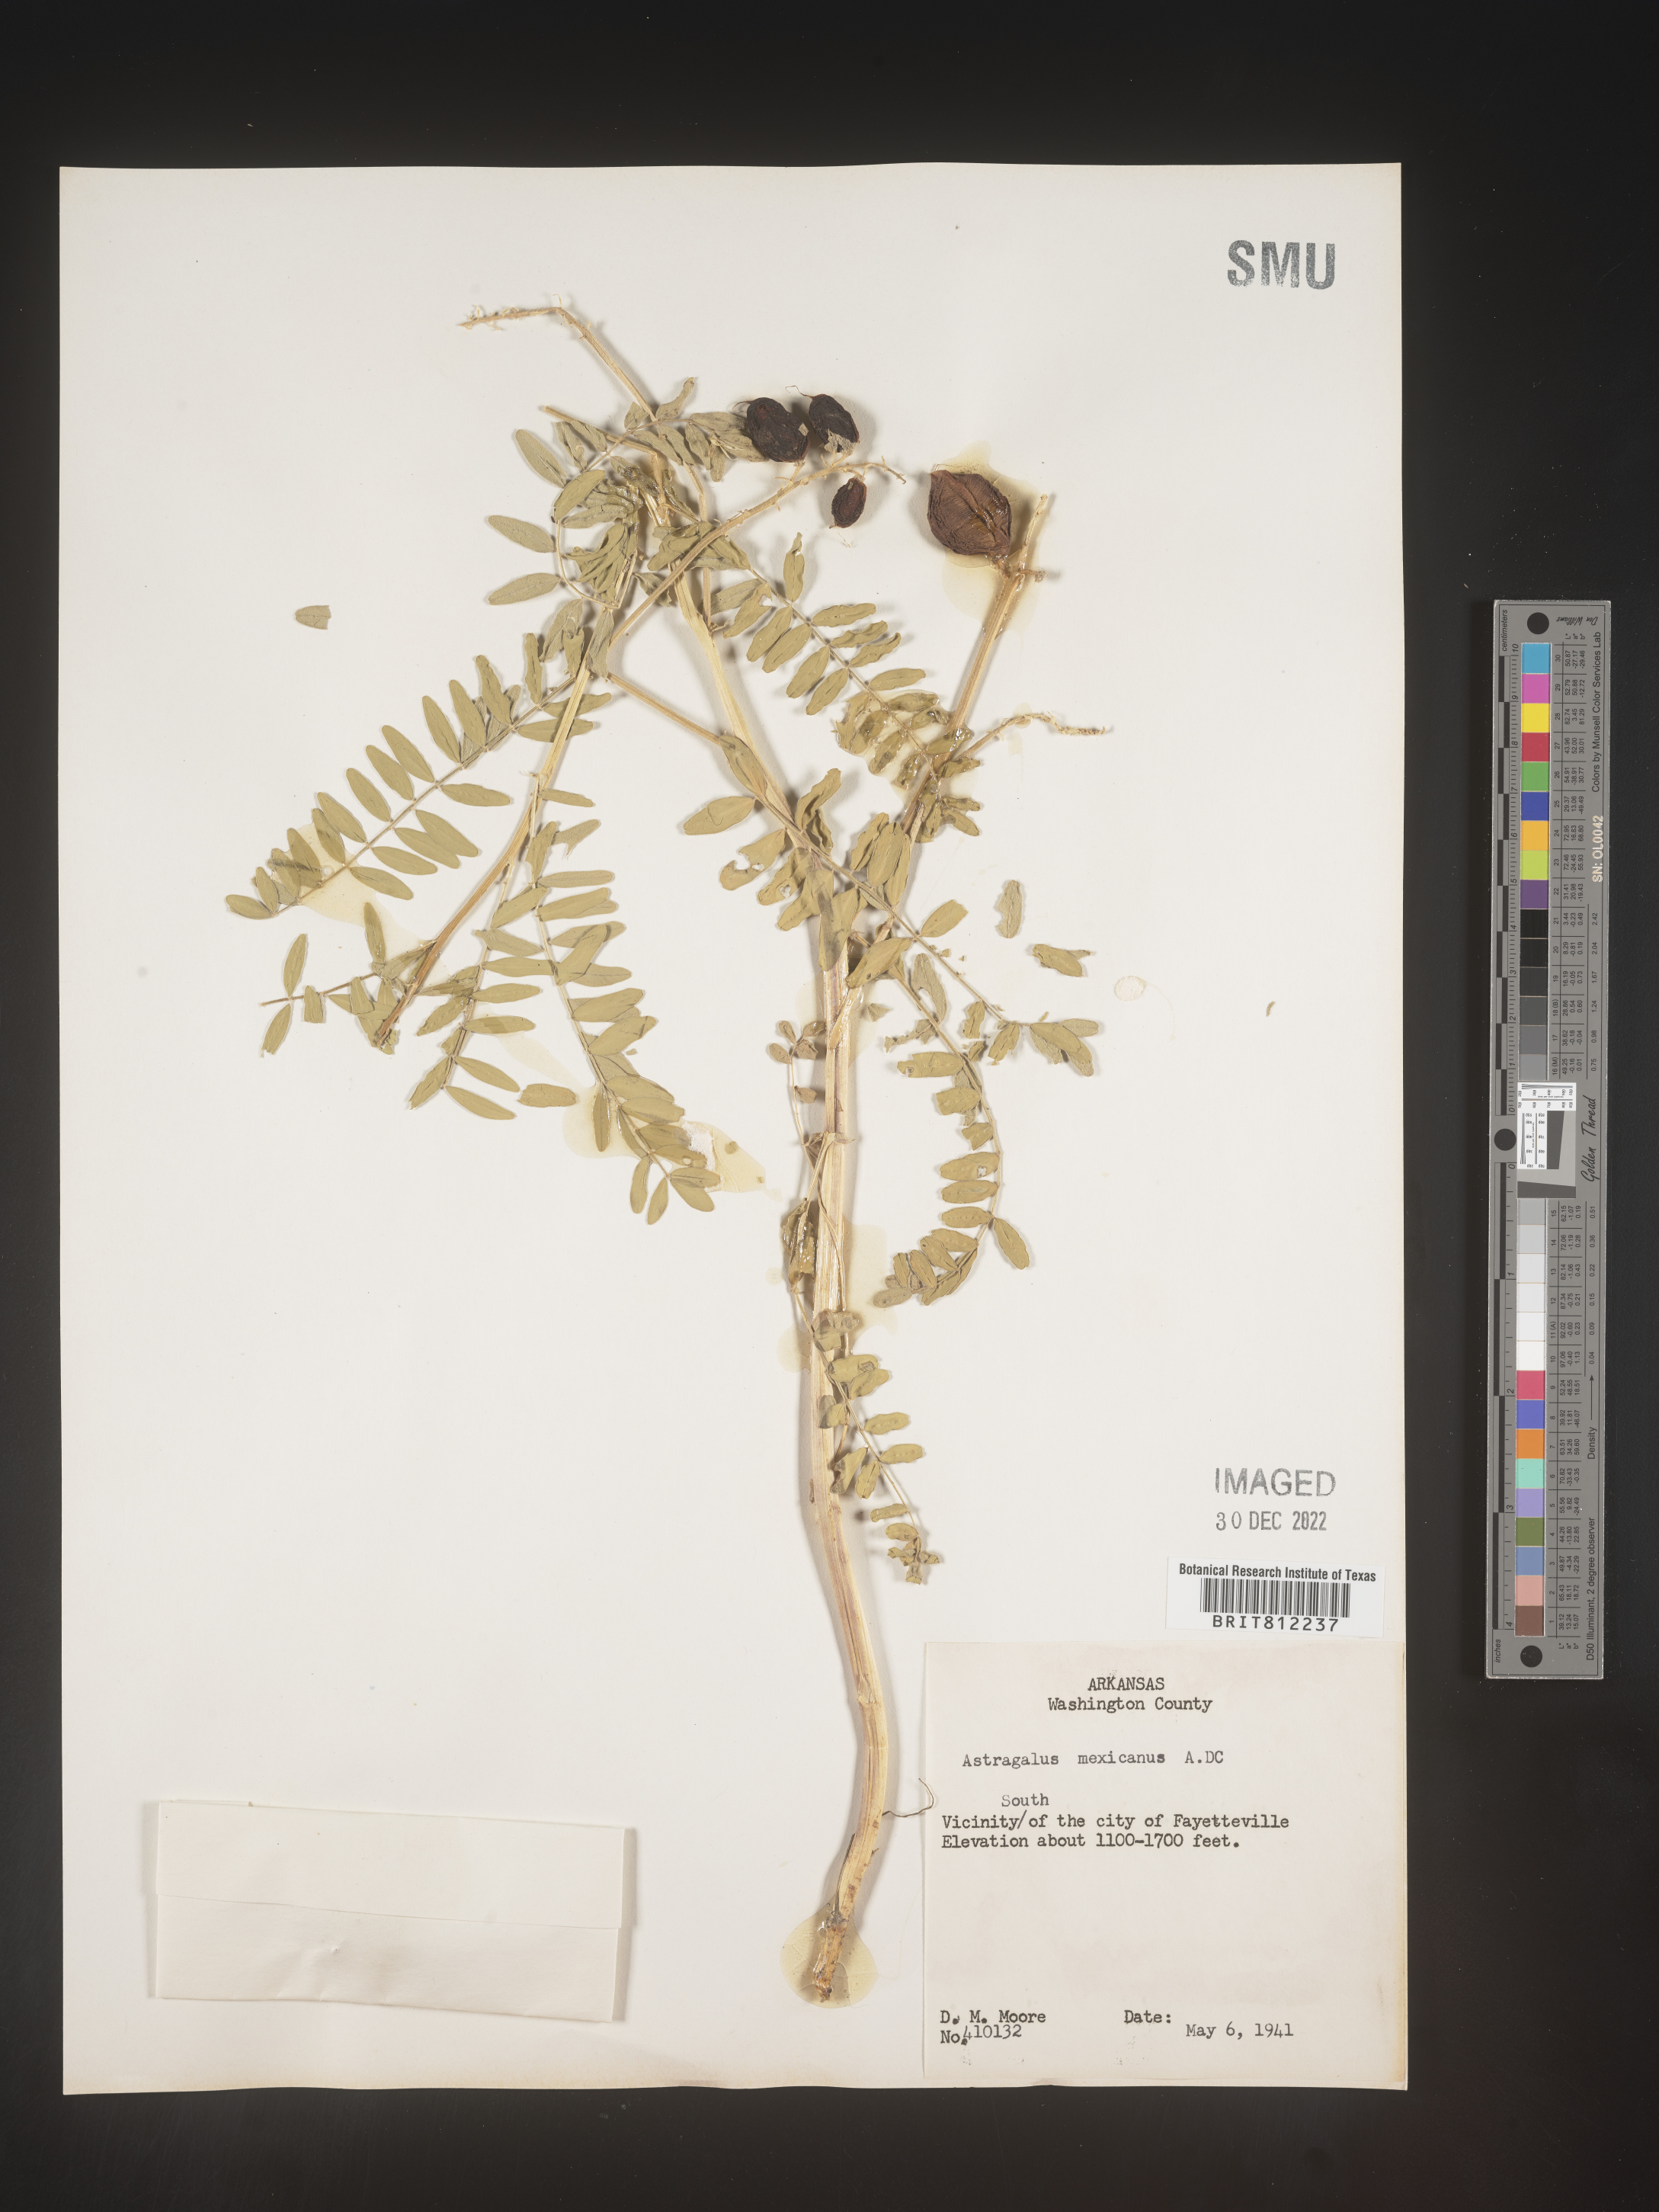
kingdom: Plantae
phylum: Tracheophyta
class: Magnoliopsida
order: Fabales
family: Fabaceae
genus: Astragalus
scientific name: Astragalus
